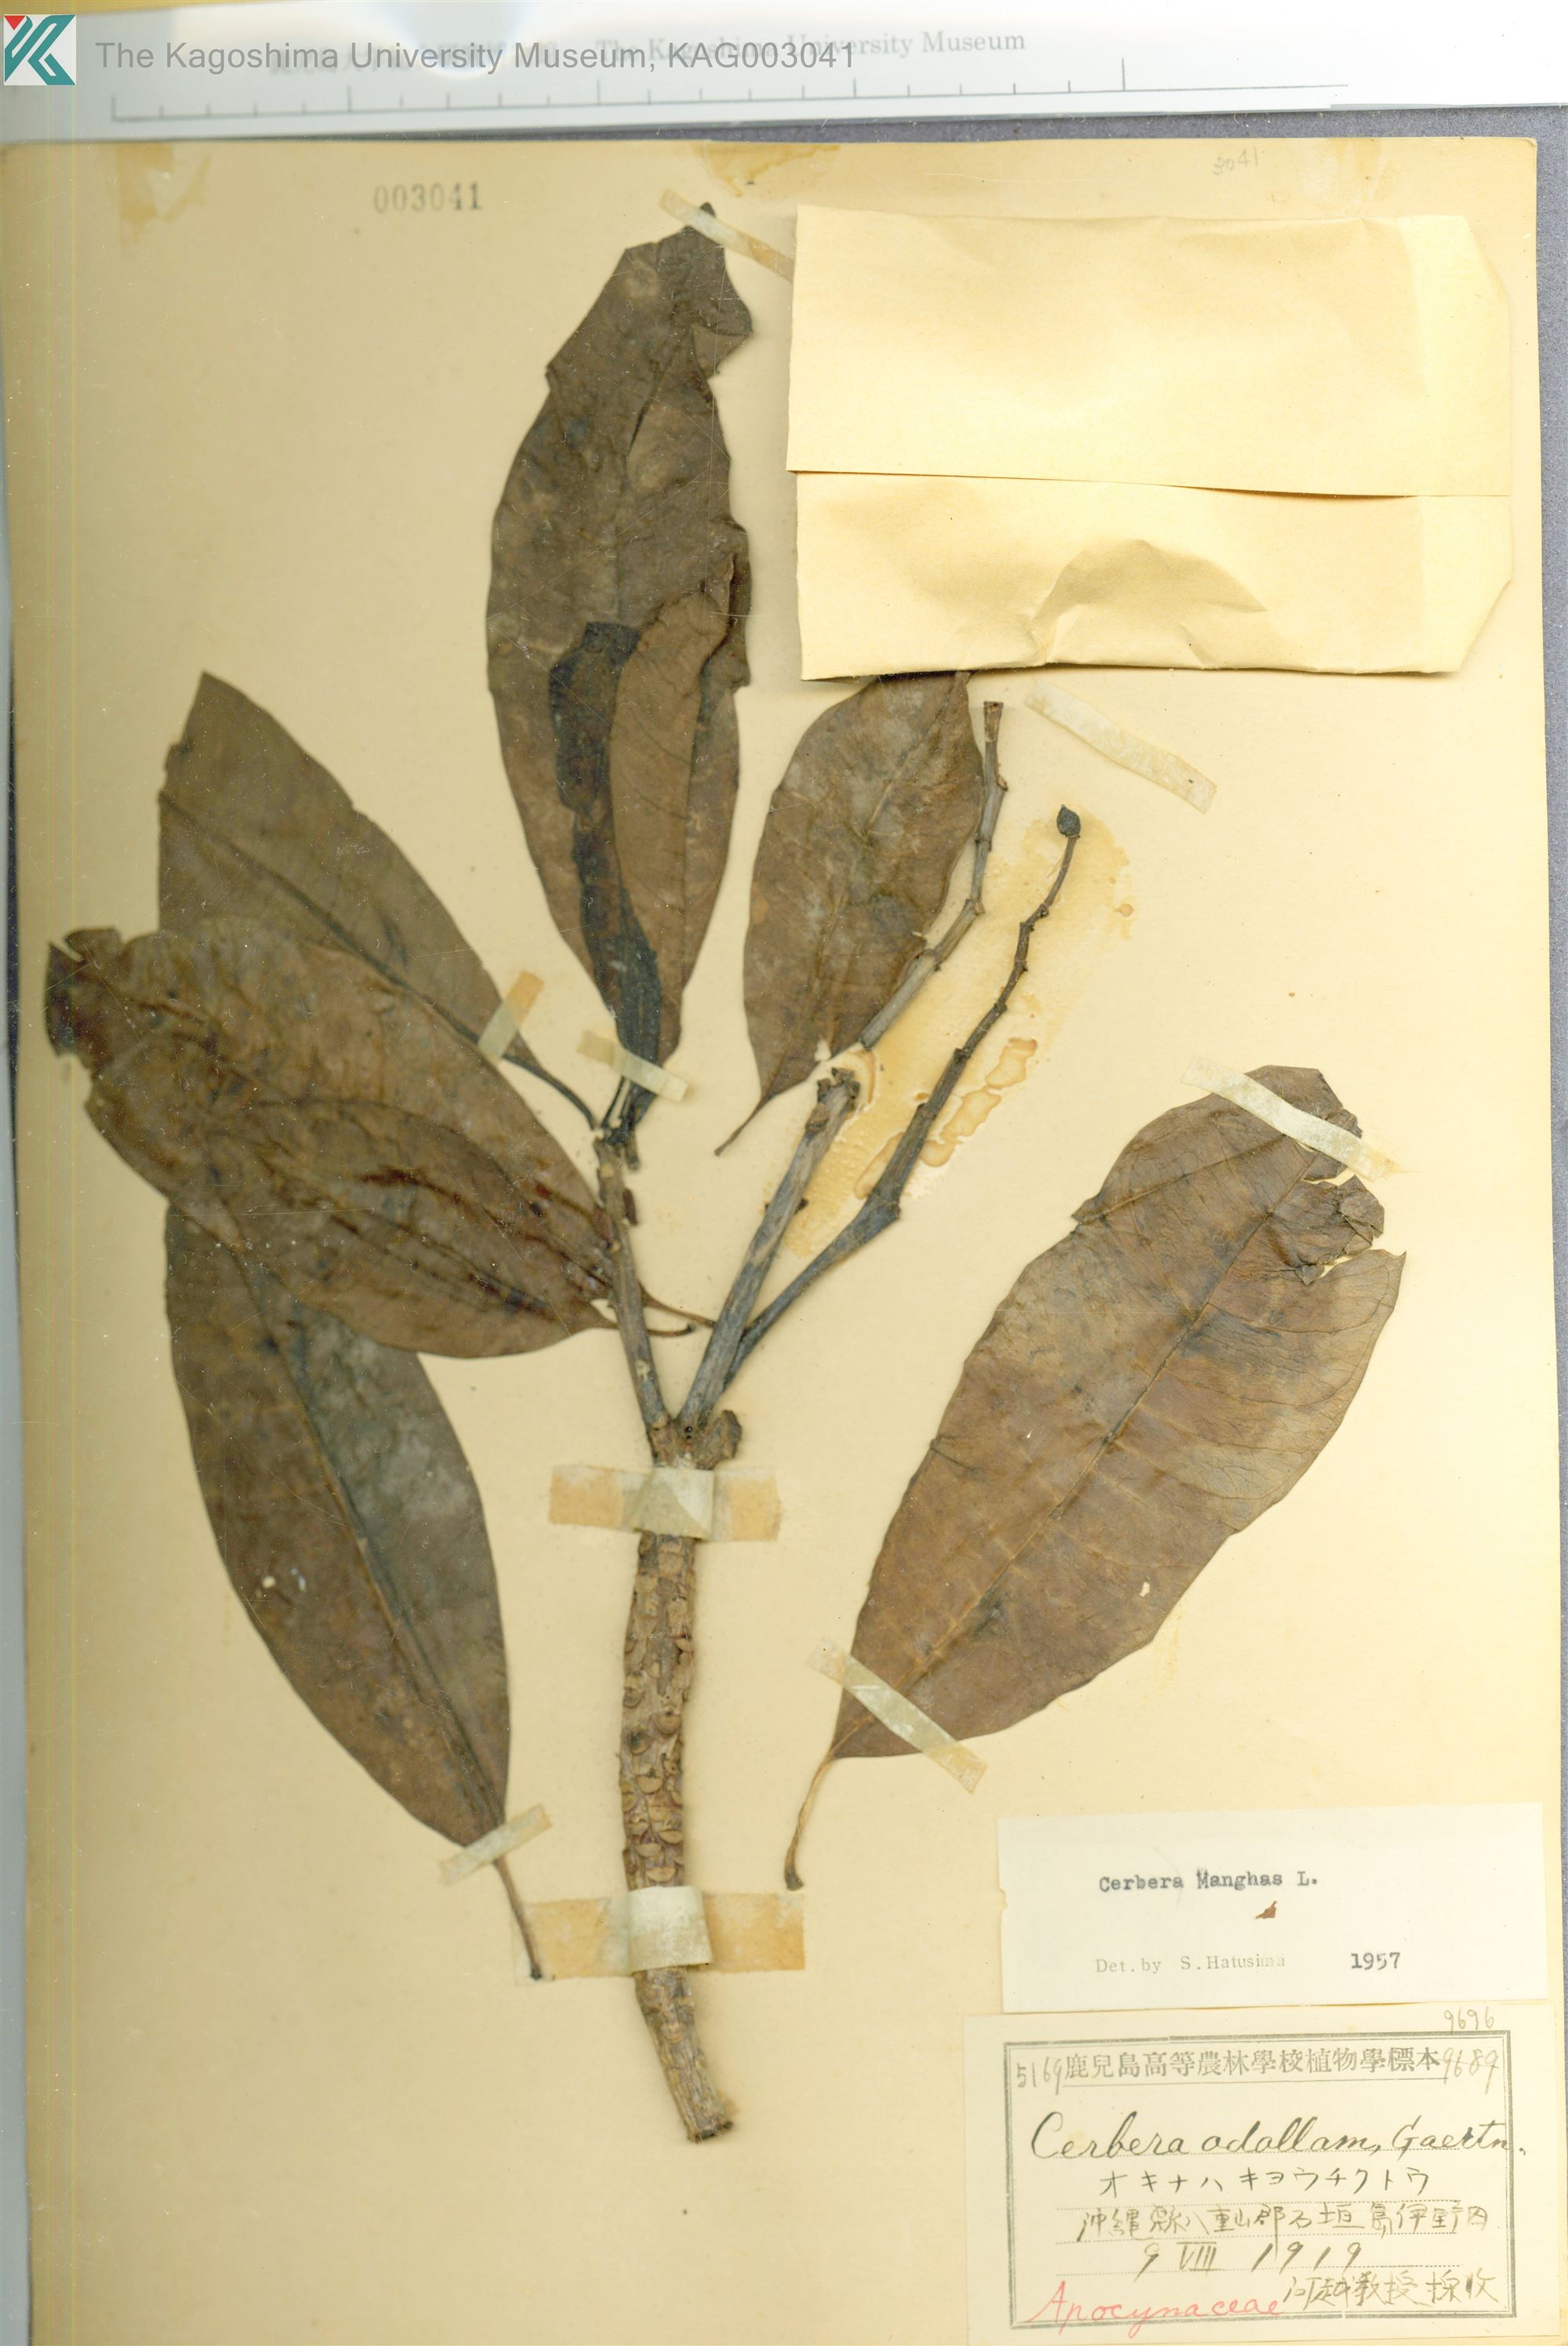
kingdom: Plantae
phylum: Tracheophyta
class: Magnoliopsida
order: Gentianales
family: Apocynaceae
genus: Cerbera
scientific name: Cerbera manghas
